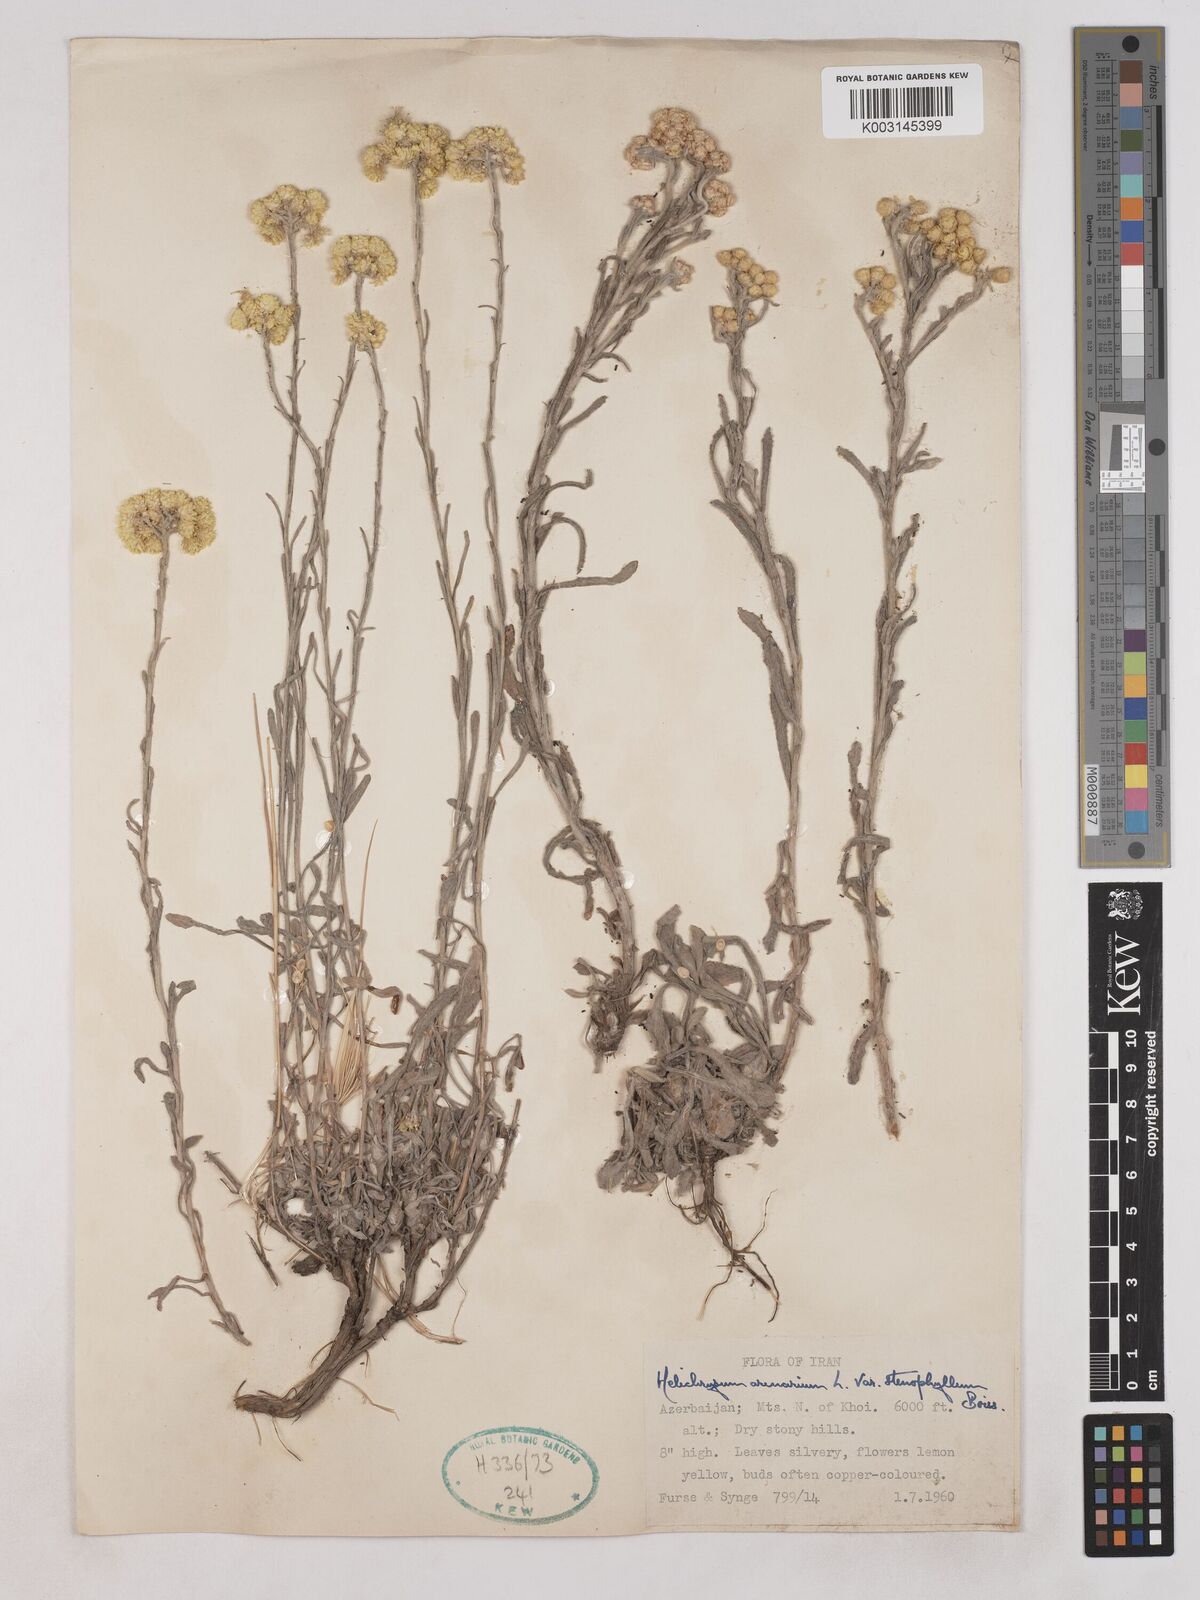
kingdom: Plantae
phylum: Tracheophyta
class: Magnoliopsida
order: Asterales
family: Asteraceae
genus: Helichrysum
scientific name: Helichrysum arenarium
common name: Strawflower
